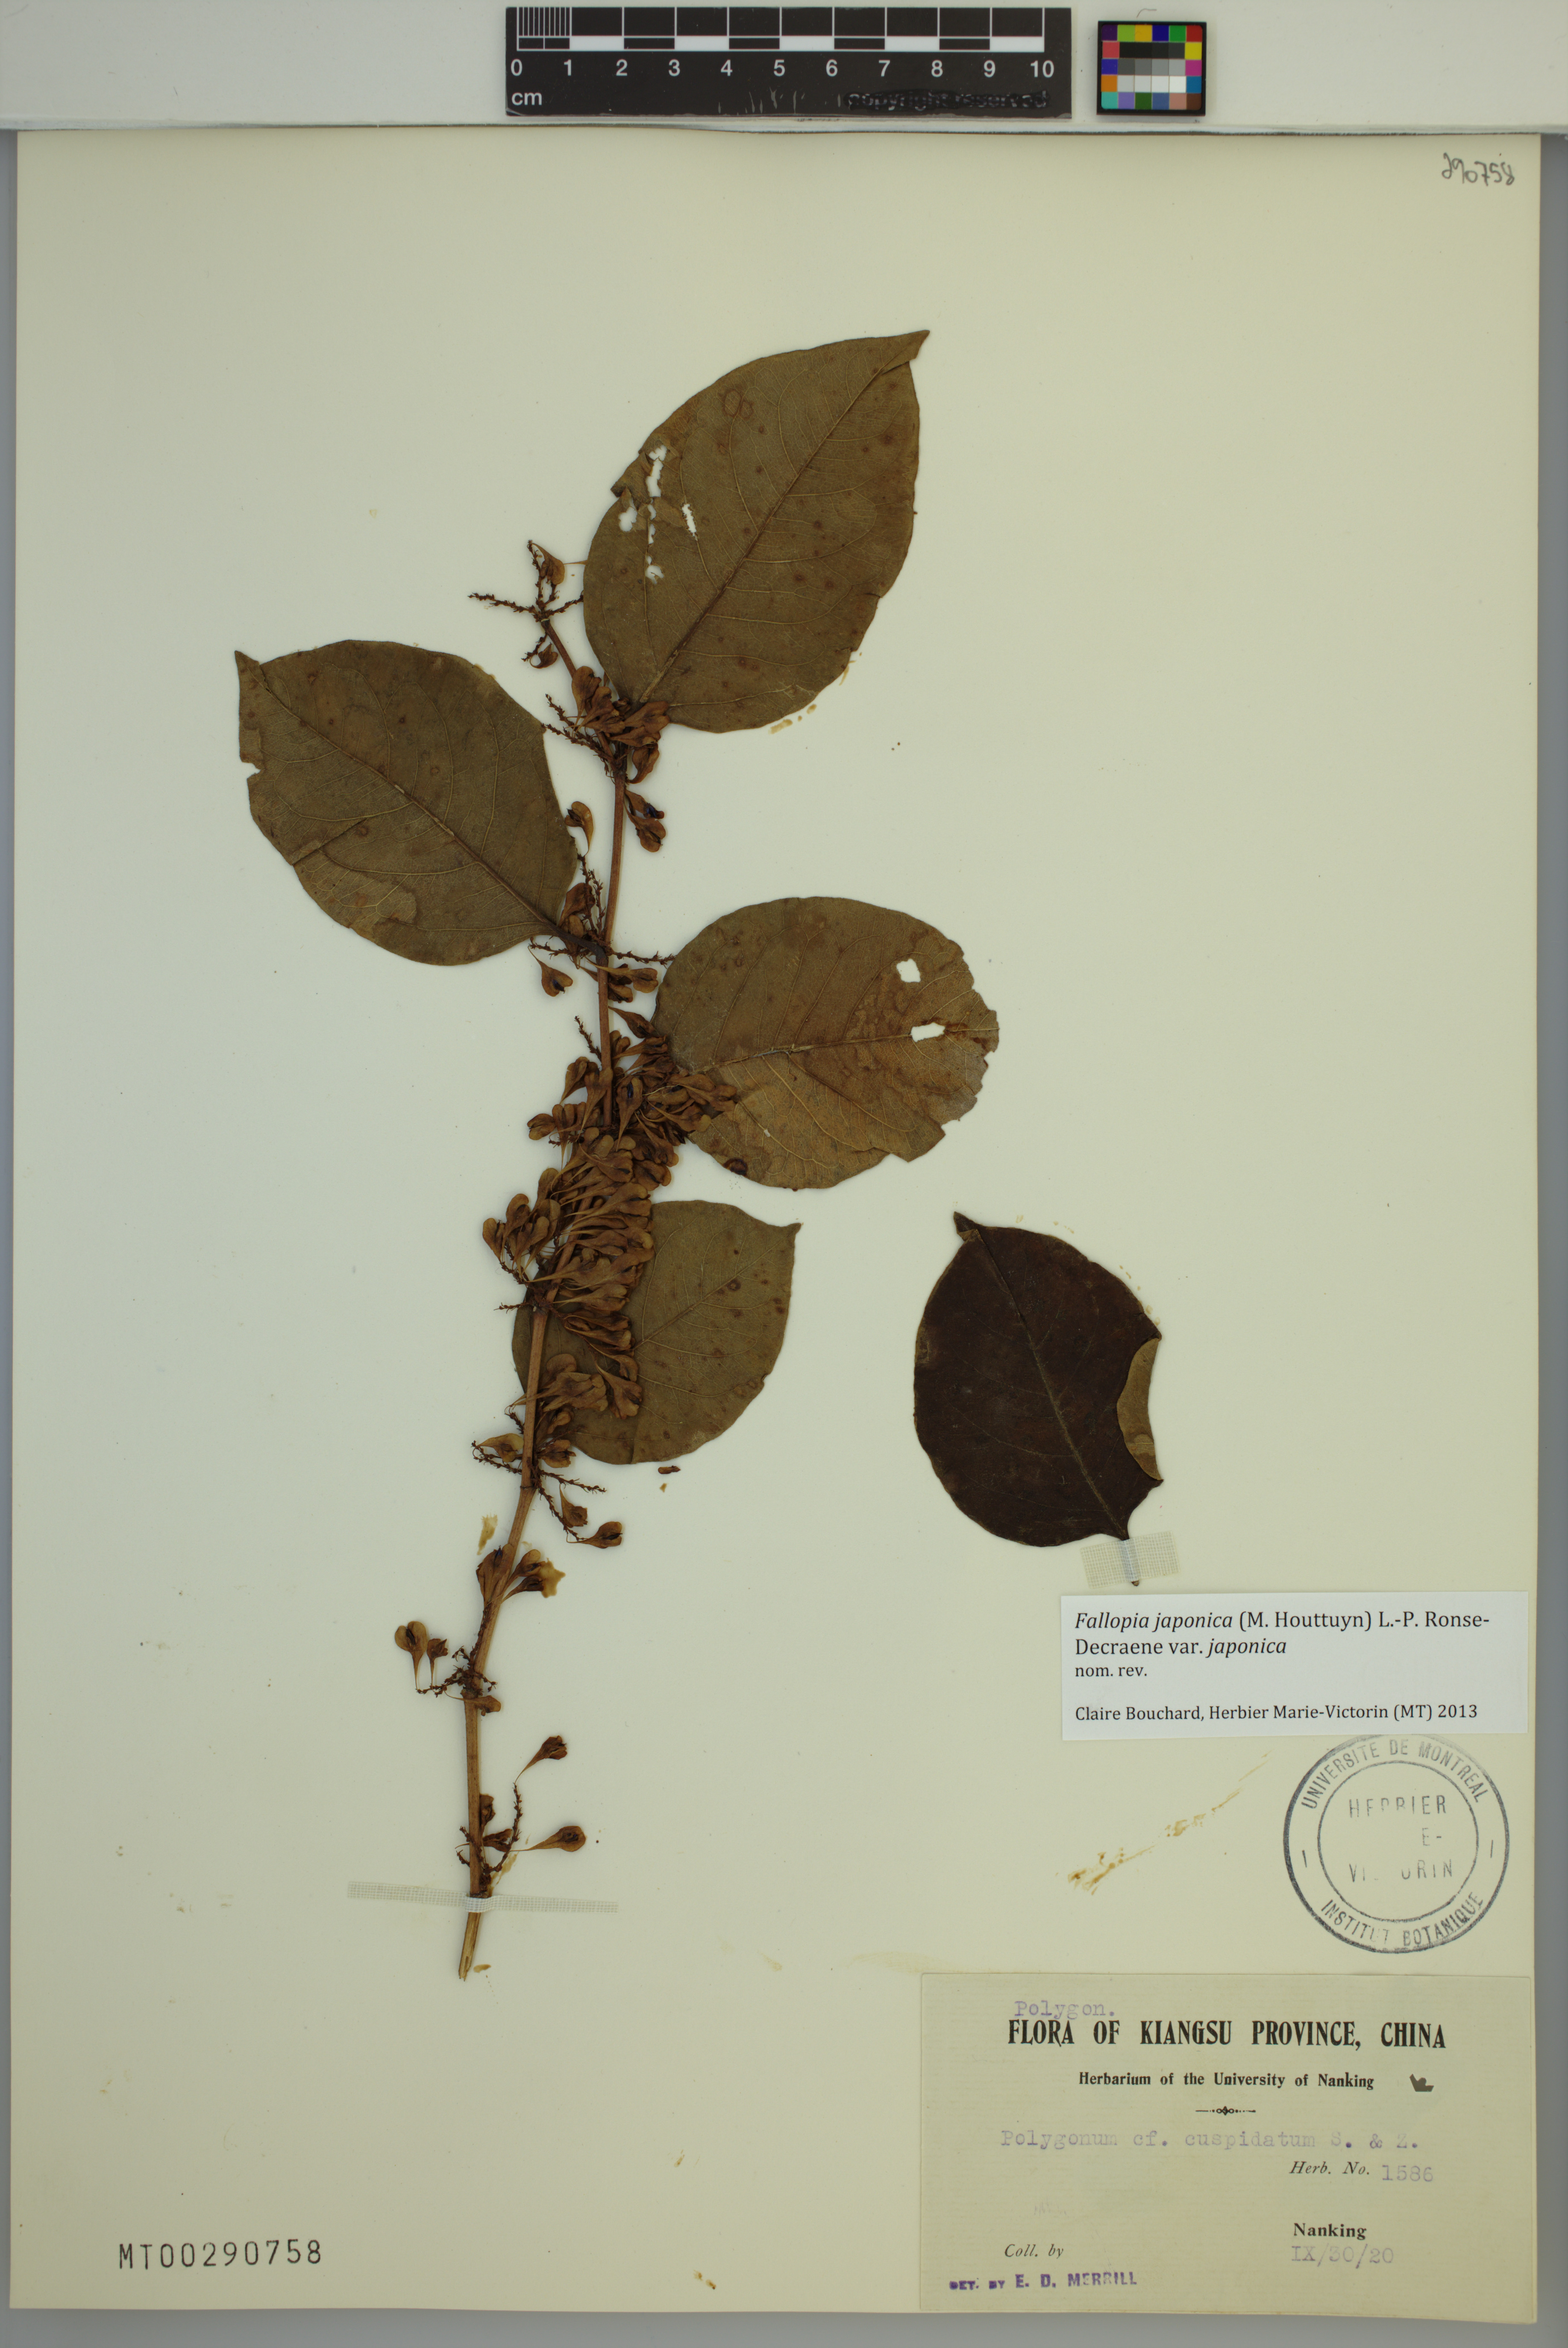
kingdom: Plantae
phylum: Tracheophyta
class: Magnoliopsida
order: Caryophyllales
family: Polygonaceae
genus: Reynoutria
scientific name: Reynoutria japonica
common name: Japanese knotweed
